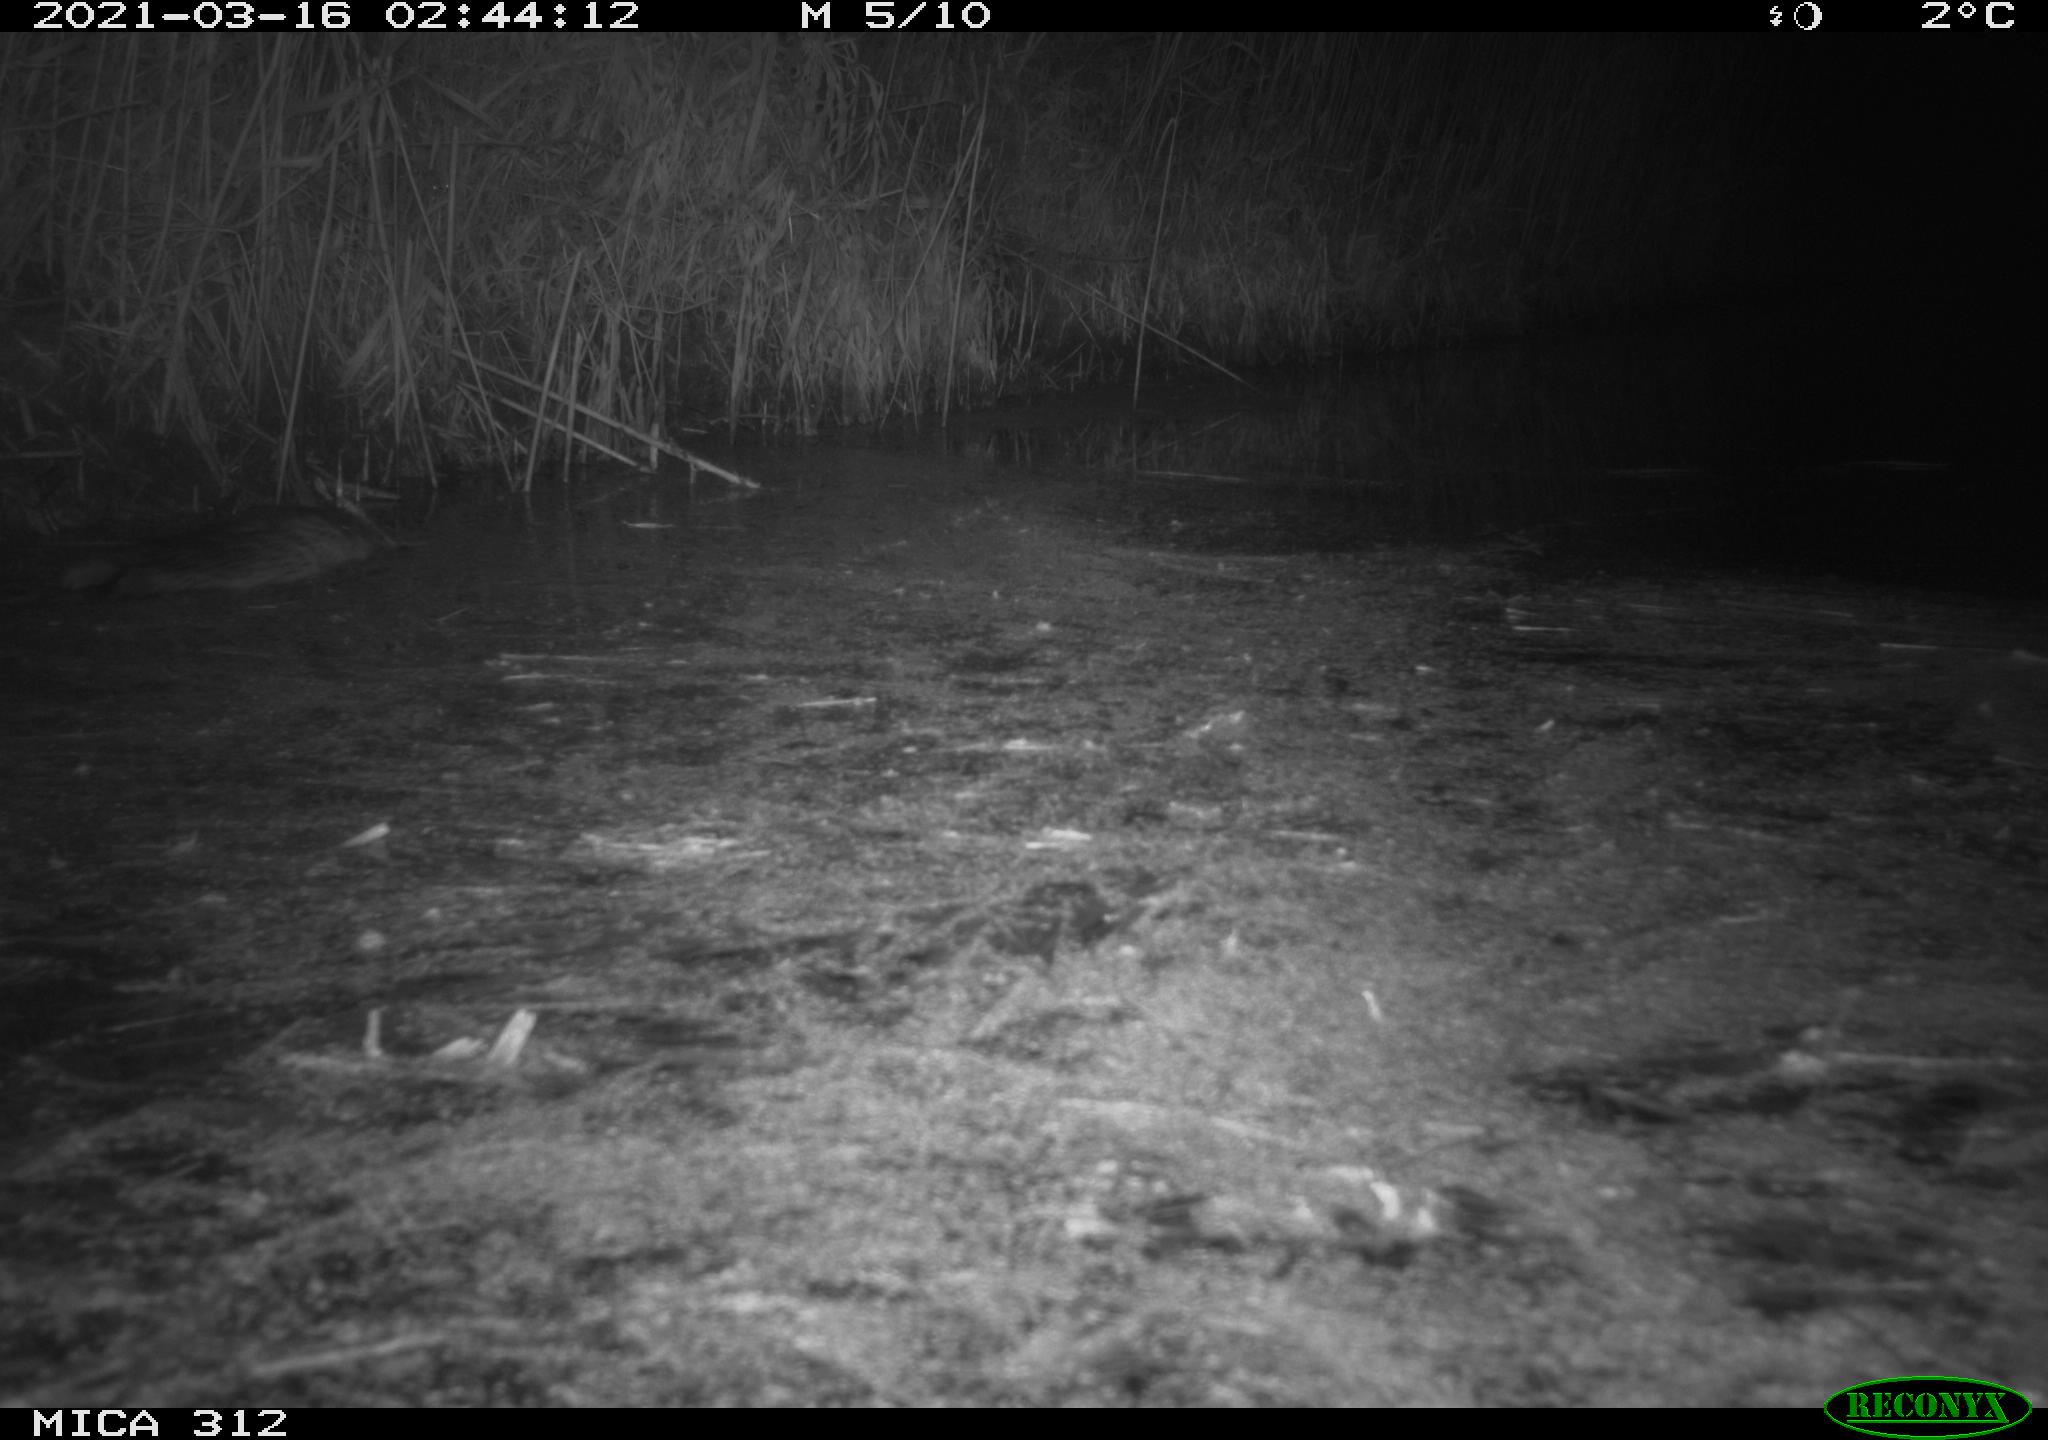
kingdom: Animalia
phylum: Chordata
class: Mammalia
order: Rodentia
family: Cricetidae
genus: Ondatra
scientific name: Ondatra zibethicus
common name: Muskrat
